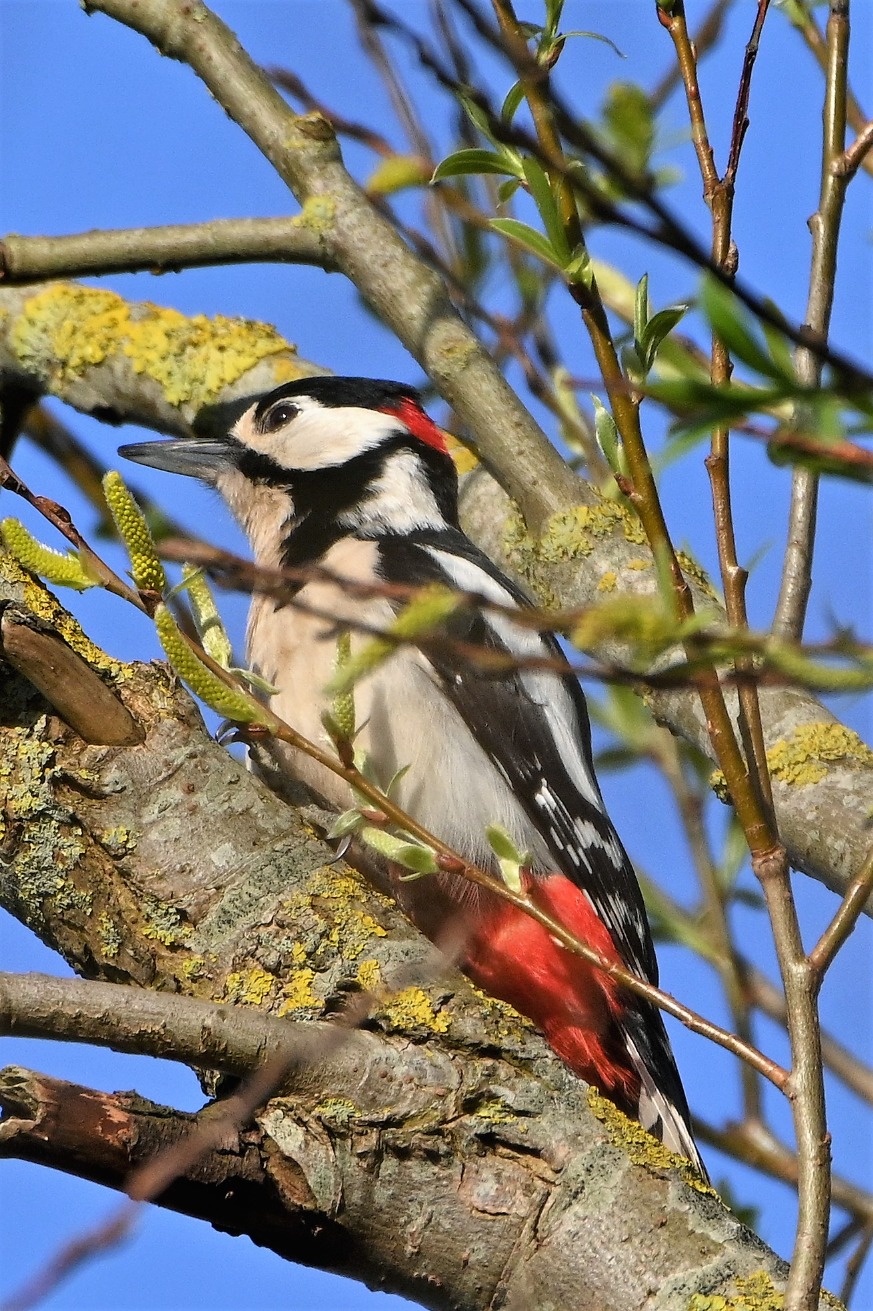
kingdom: Animalia
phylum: Chordata
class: Aves
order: Piciformes
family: Picidae
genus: Dendrocopos
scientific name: Dendrocopos major
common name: Stor flagspætte
